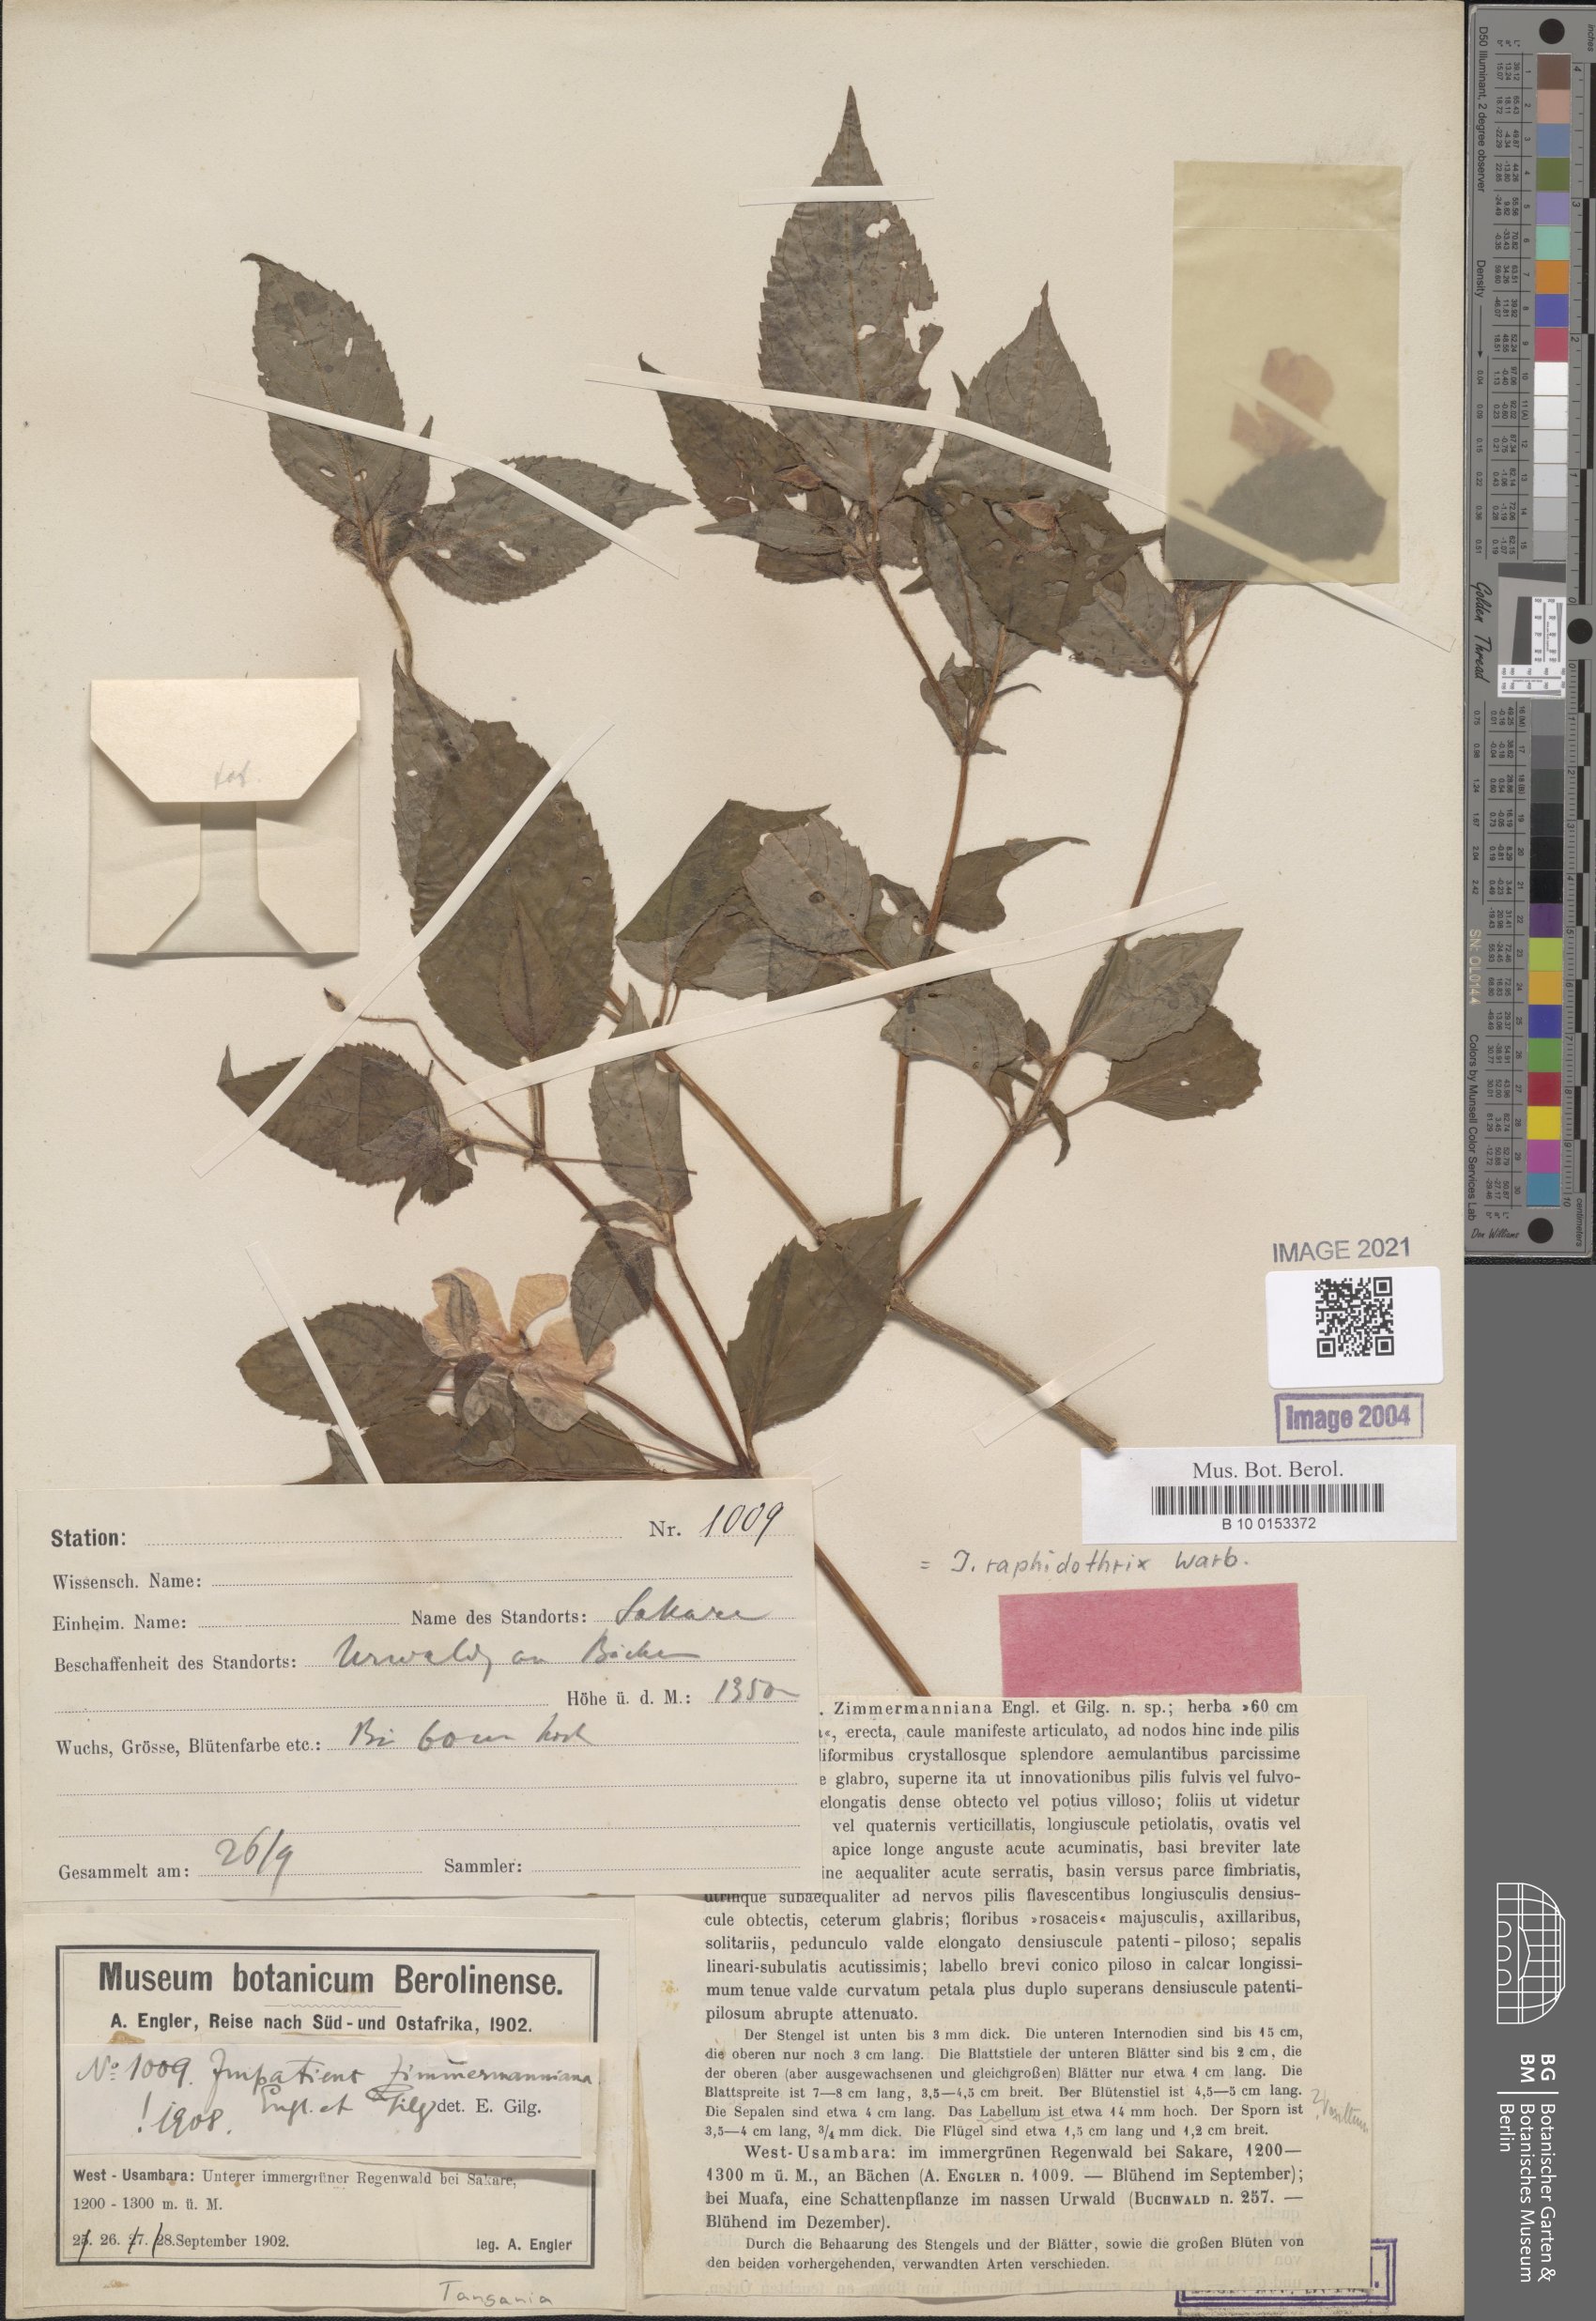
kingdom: Plantae
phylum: Tracheophyta
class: Magnoliopsida
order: Ericales
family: Balsaminaceae
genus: Impatiens
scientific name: Impatiens raphidothrix
